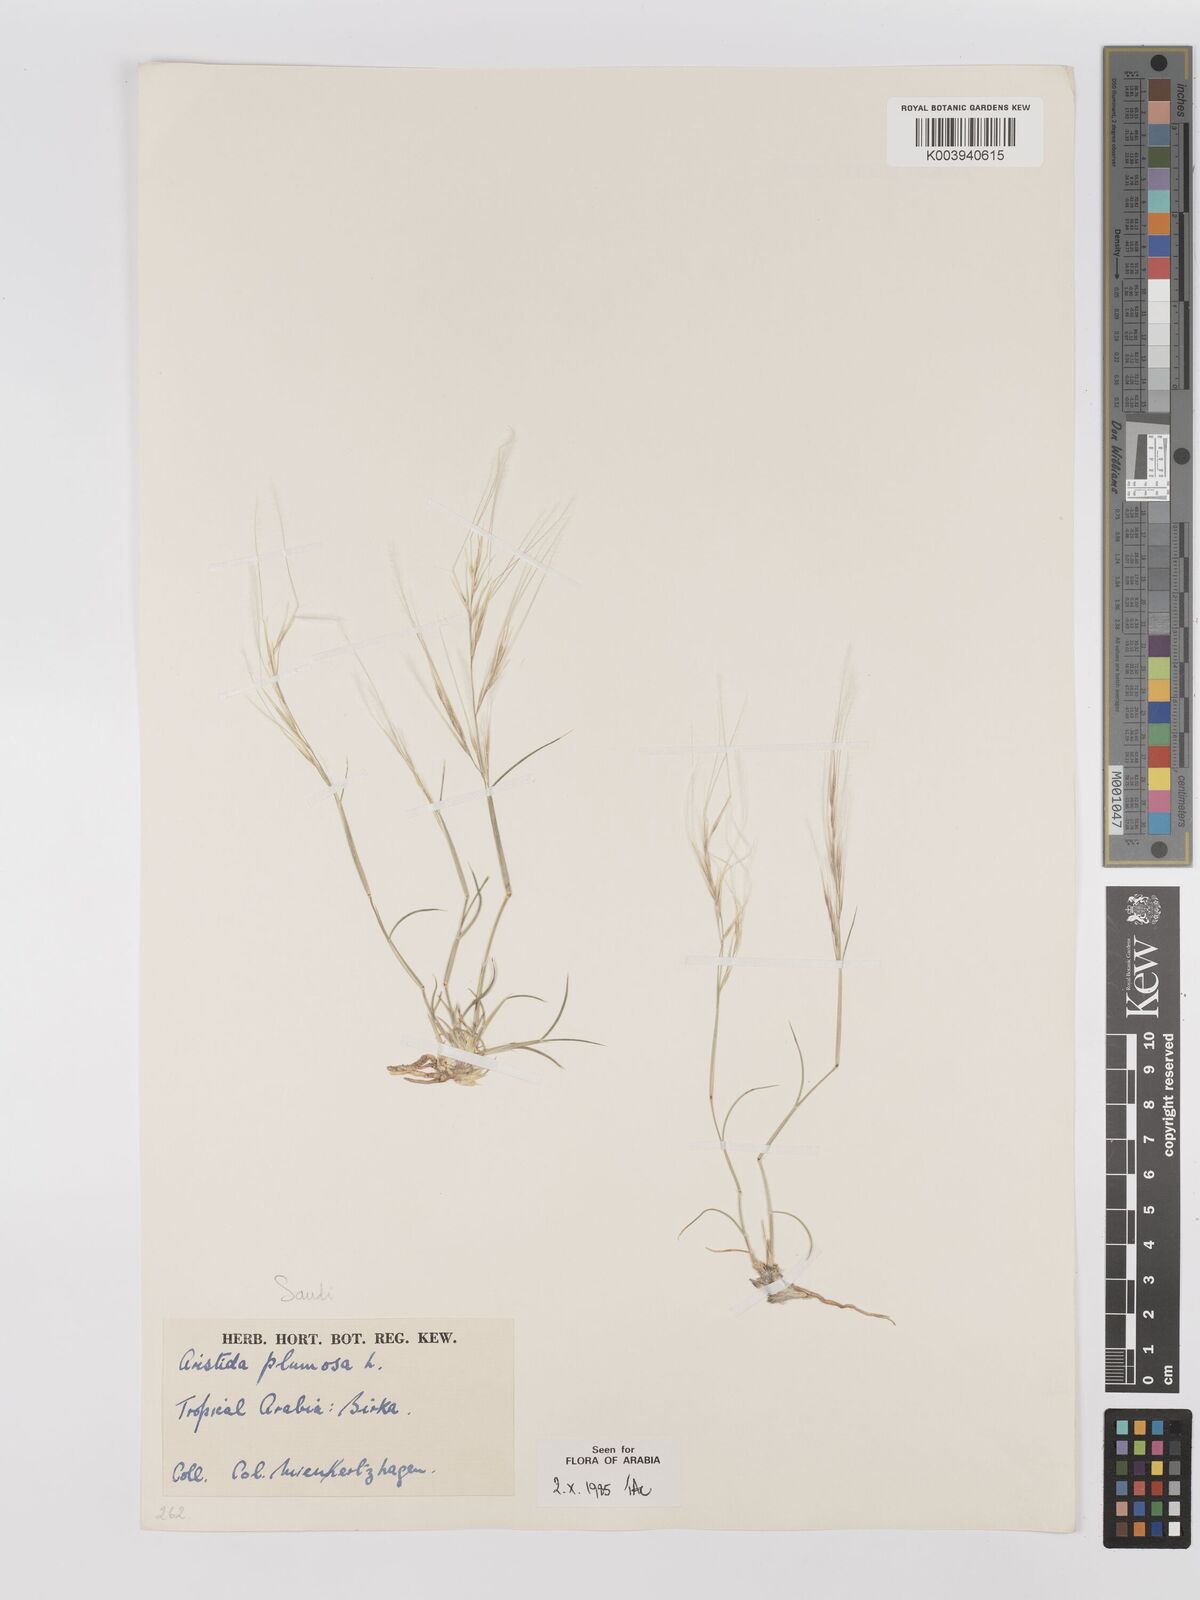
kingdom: Plantae
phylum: Tracheophyta
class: Liliopsida
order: Poales
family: Poaceae
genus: Stipagrostis
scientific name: Stipagrostis plumosa
